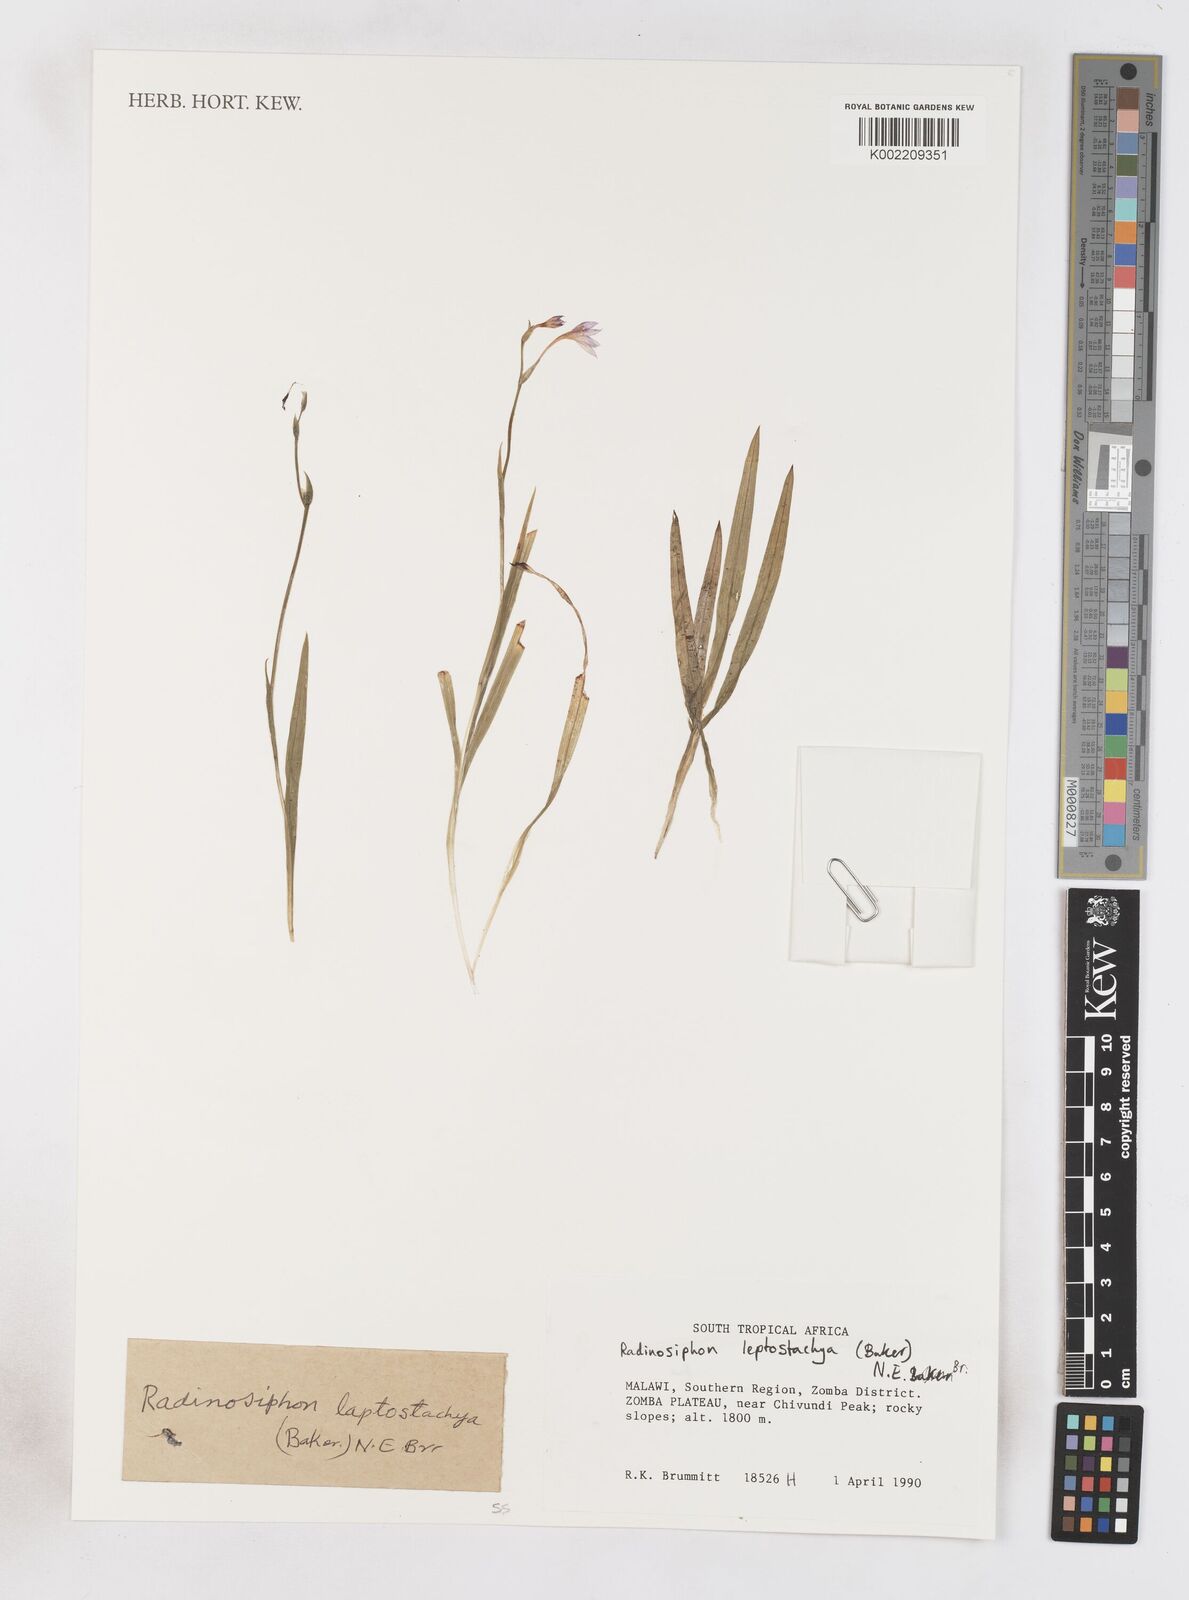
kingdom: Plantae
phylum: Tracheophyta
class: Liliopsida
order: Asparagales
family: Iridaceae
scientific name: Iridaceae
